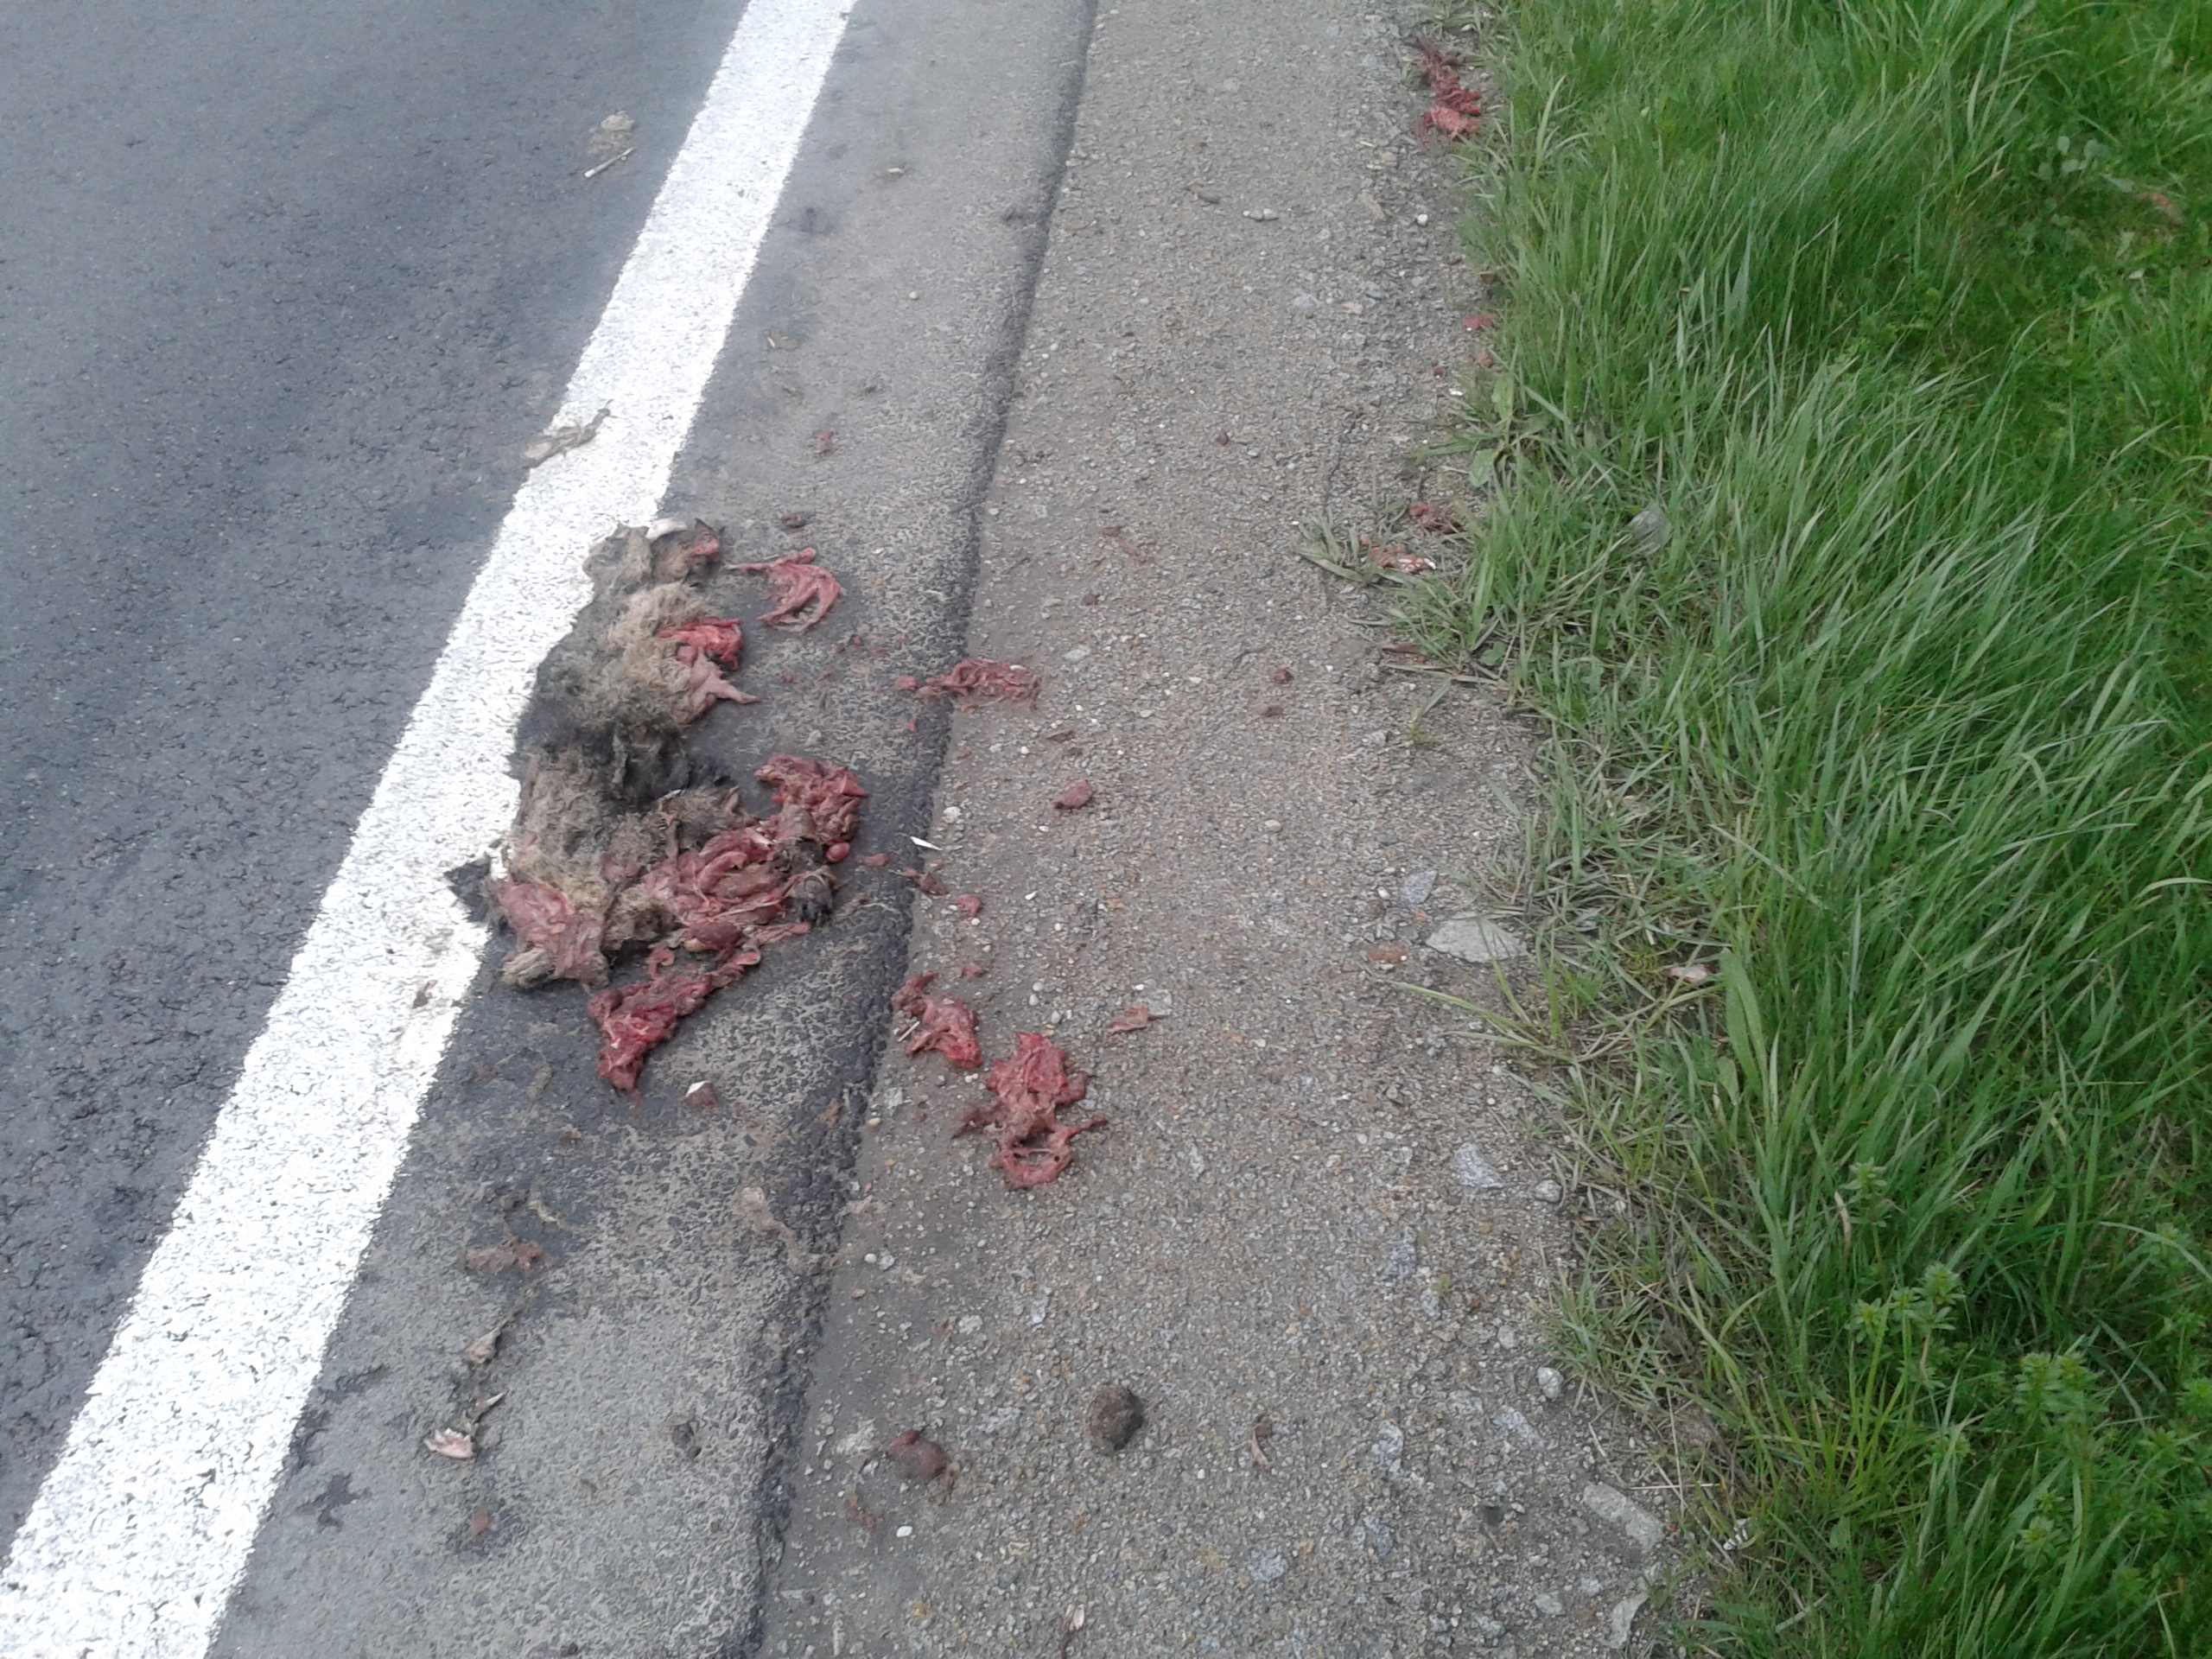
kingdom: Animalia
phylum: Chordata
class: Mammalia
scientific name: Mammalia
